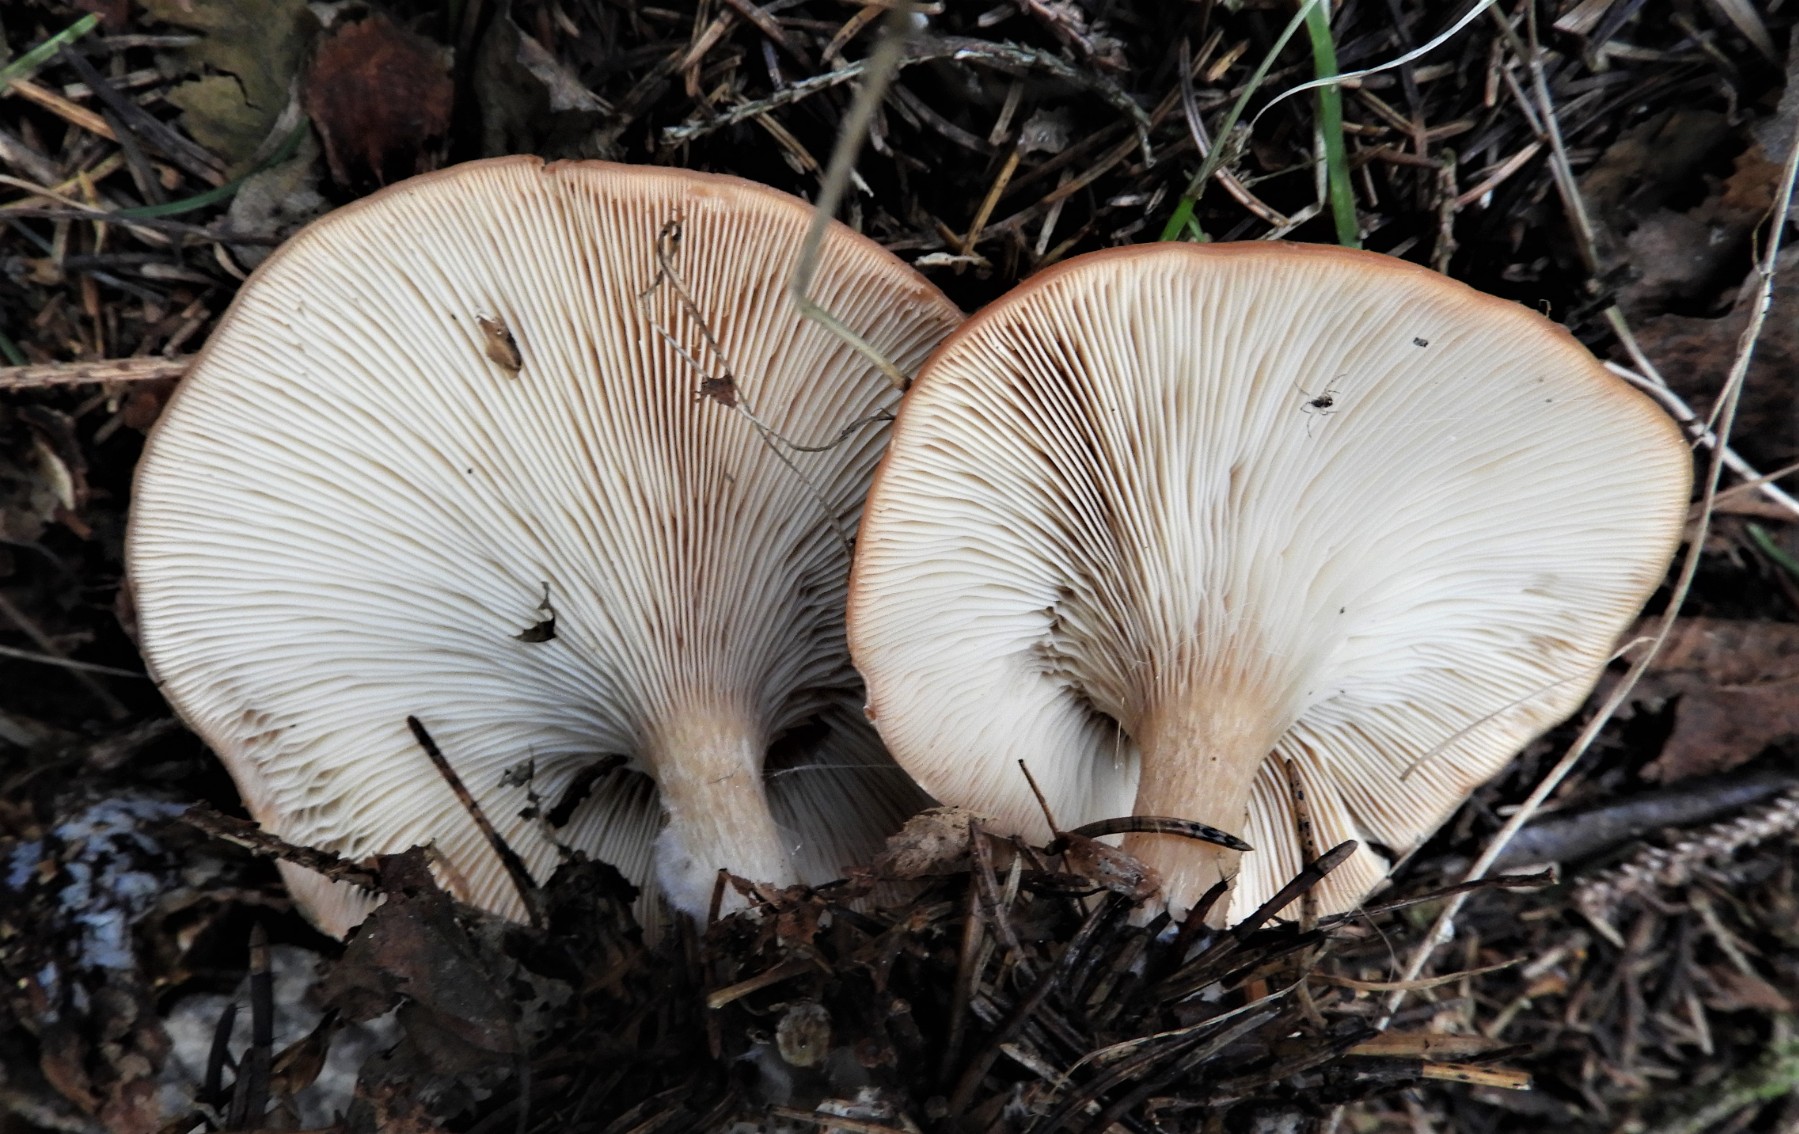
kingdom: Fungi
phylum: Basidiomycota
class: Agaricomycetes
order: Agaricales
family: Tricholomataceae
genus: Paralepista
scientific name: Paralepista flaccida
